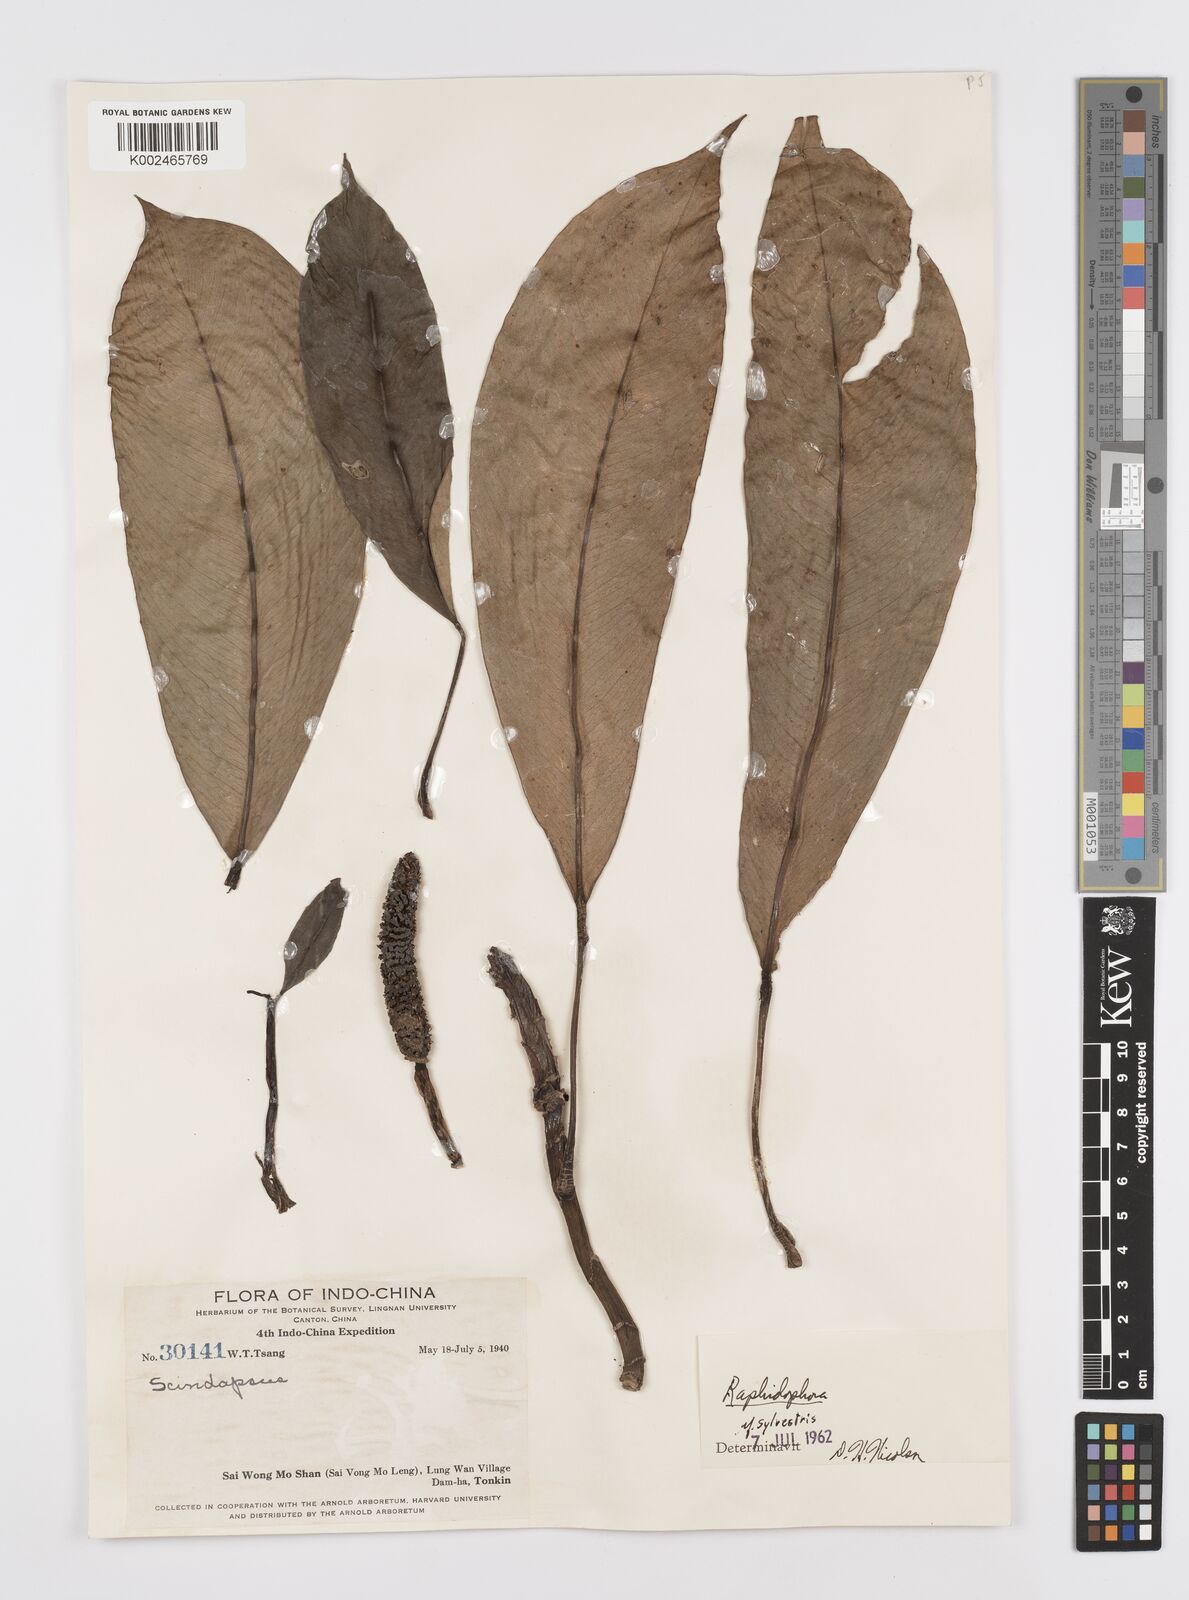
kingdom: Plantae
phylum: Tracheophyta
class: Liliopsida
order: Alismatales
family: Araceae
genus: Rhaphidophora
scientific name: Rhaphidophora
